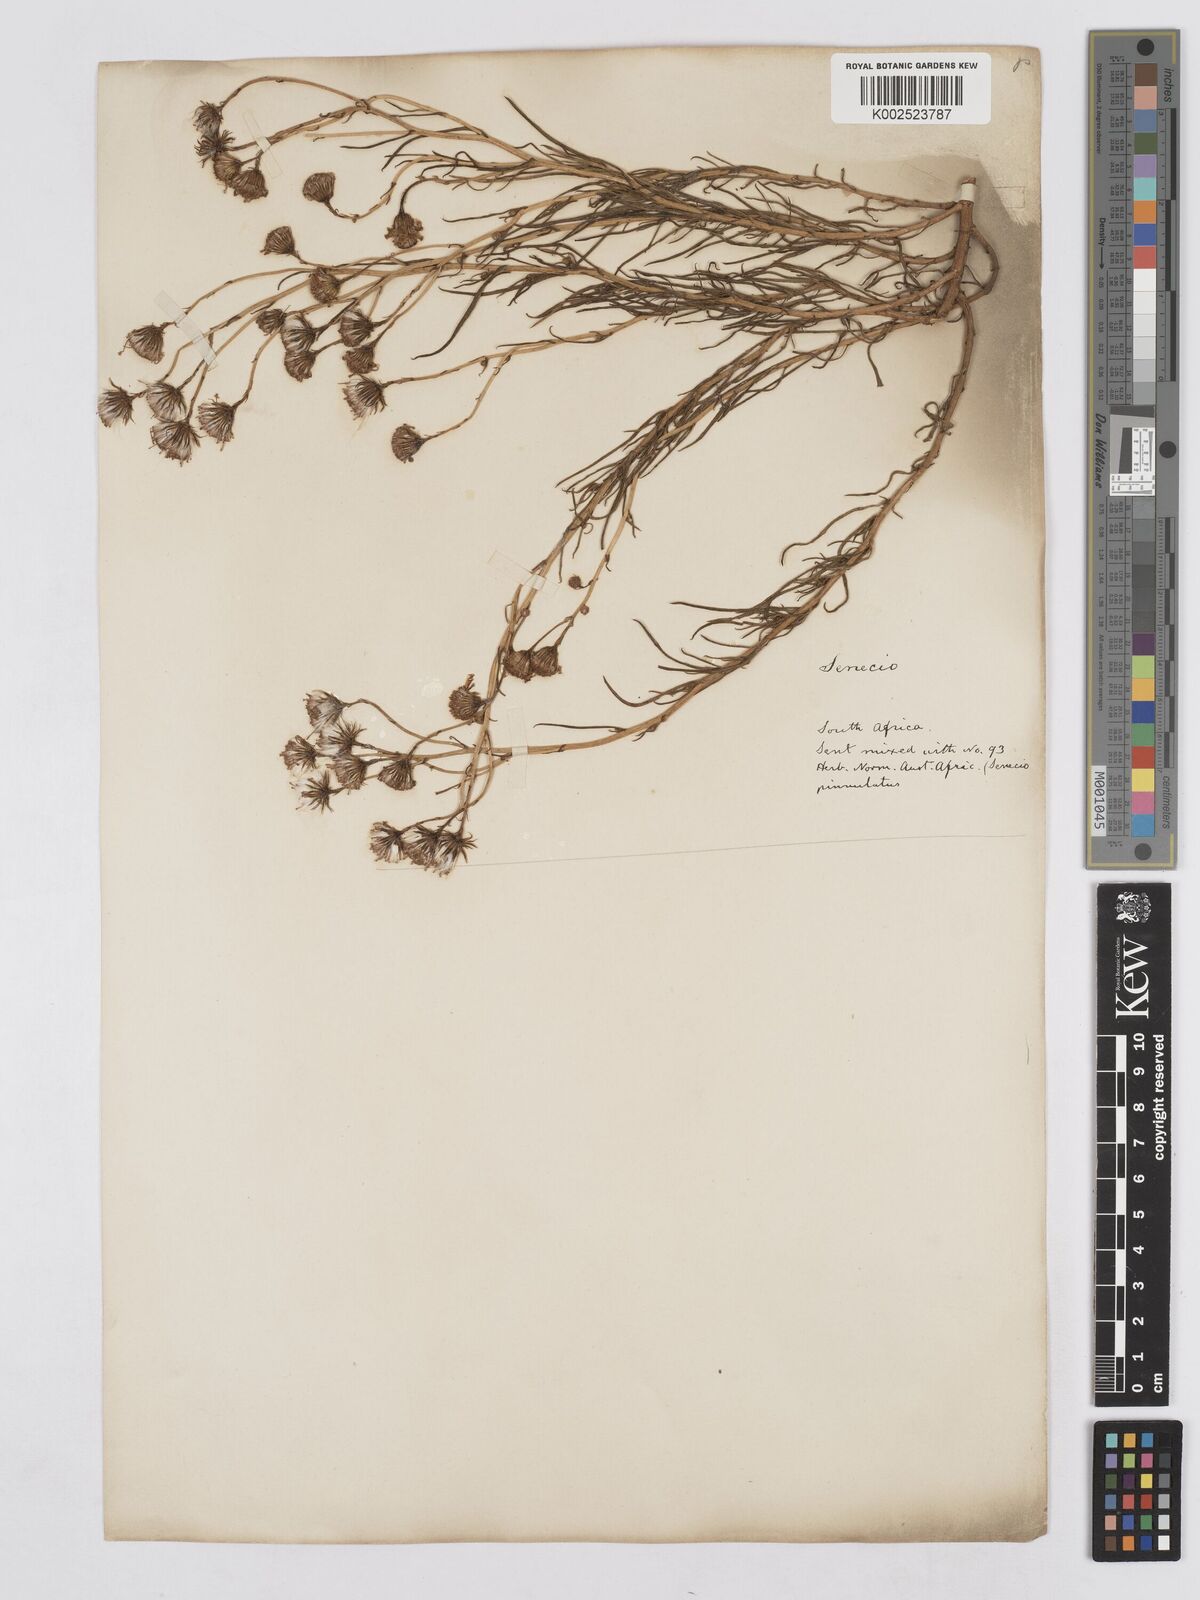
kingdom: Plantae
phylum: Tracheophyta
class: Magnoliopsida
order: Asterales
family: Asteraceae
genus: Senecio
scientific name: Senecio harveyanus
